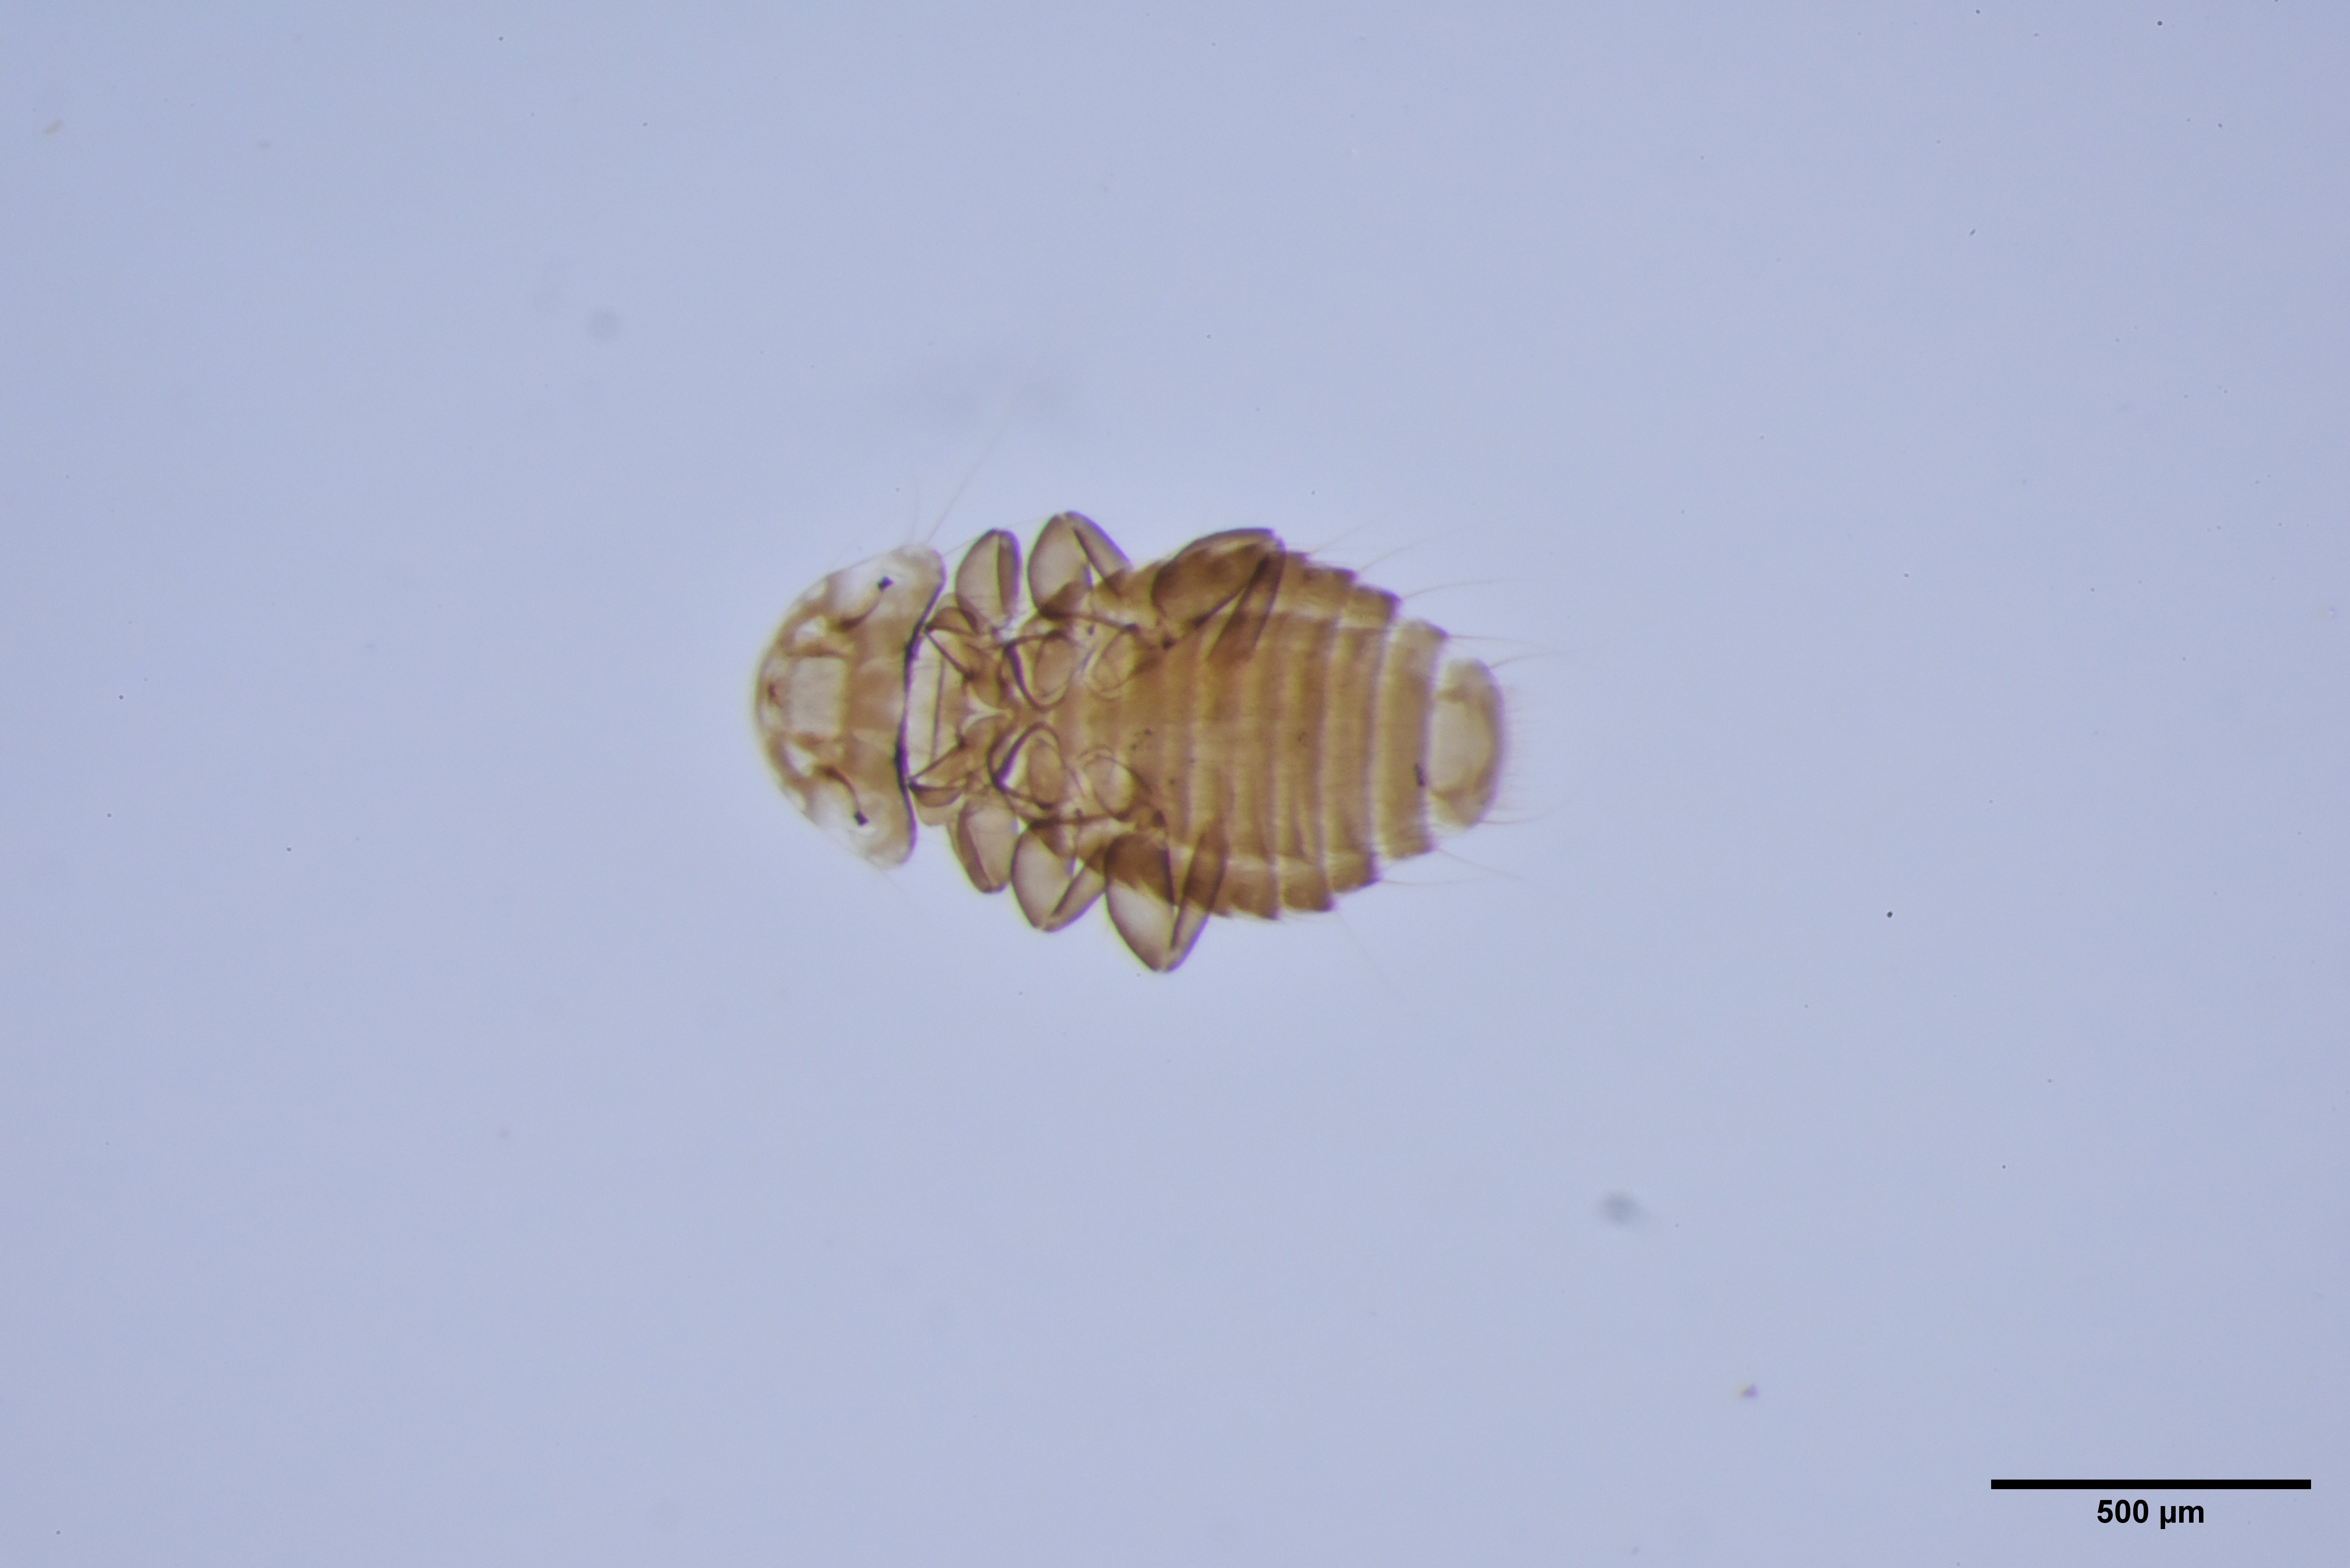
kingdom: Animalia
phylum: Arthropoda
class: Insecta
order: Psocodea
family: Menoponidae
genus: Menacanthus
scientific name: Menacanthus sinuatus
